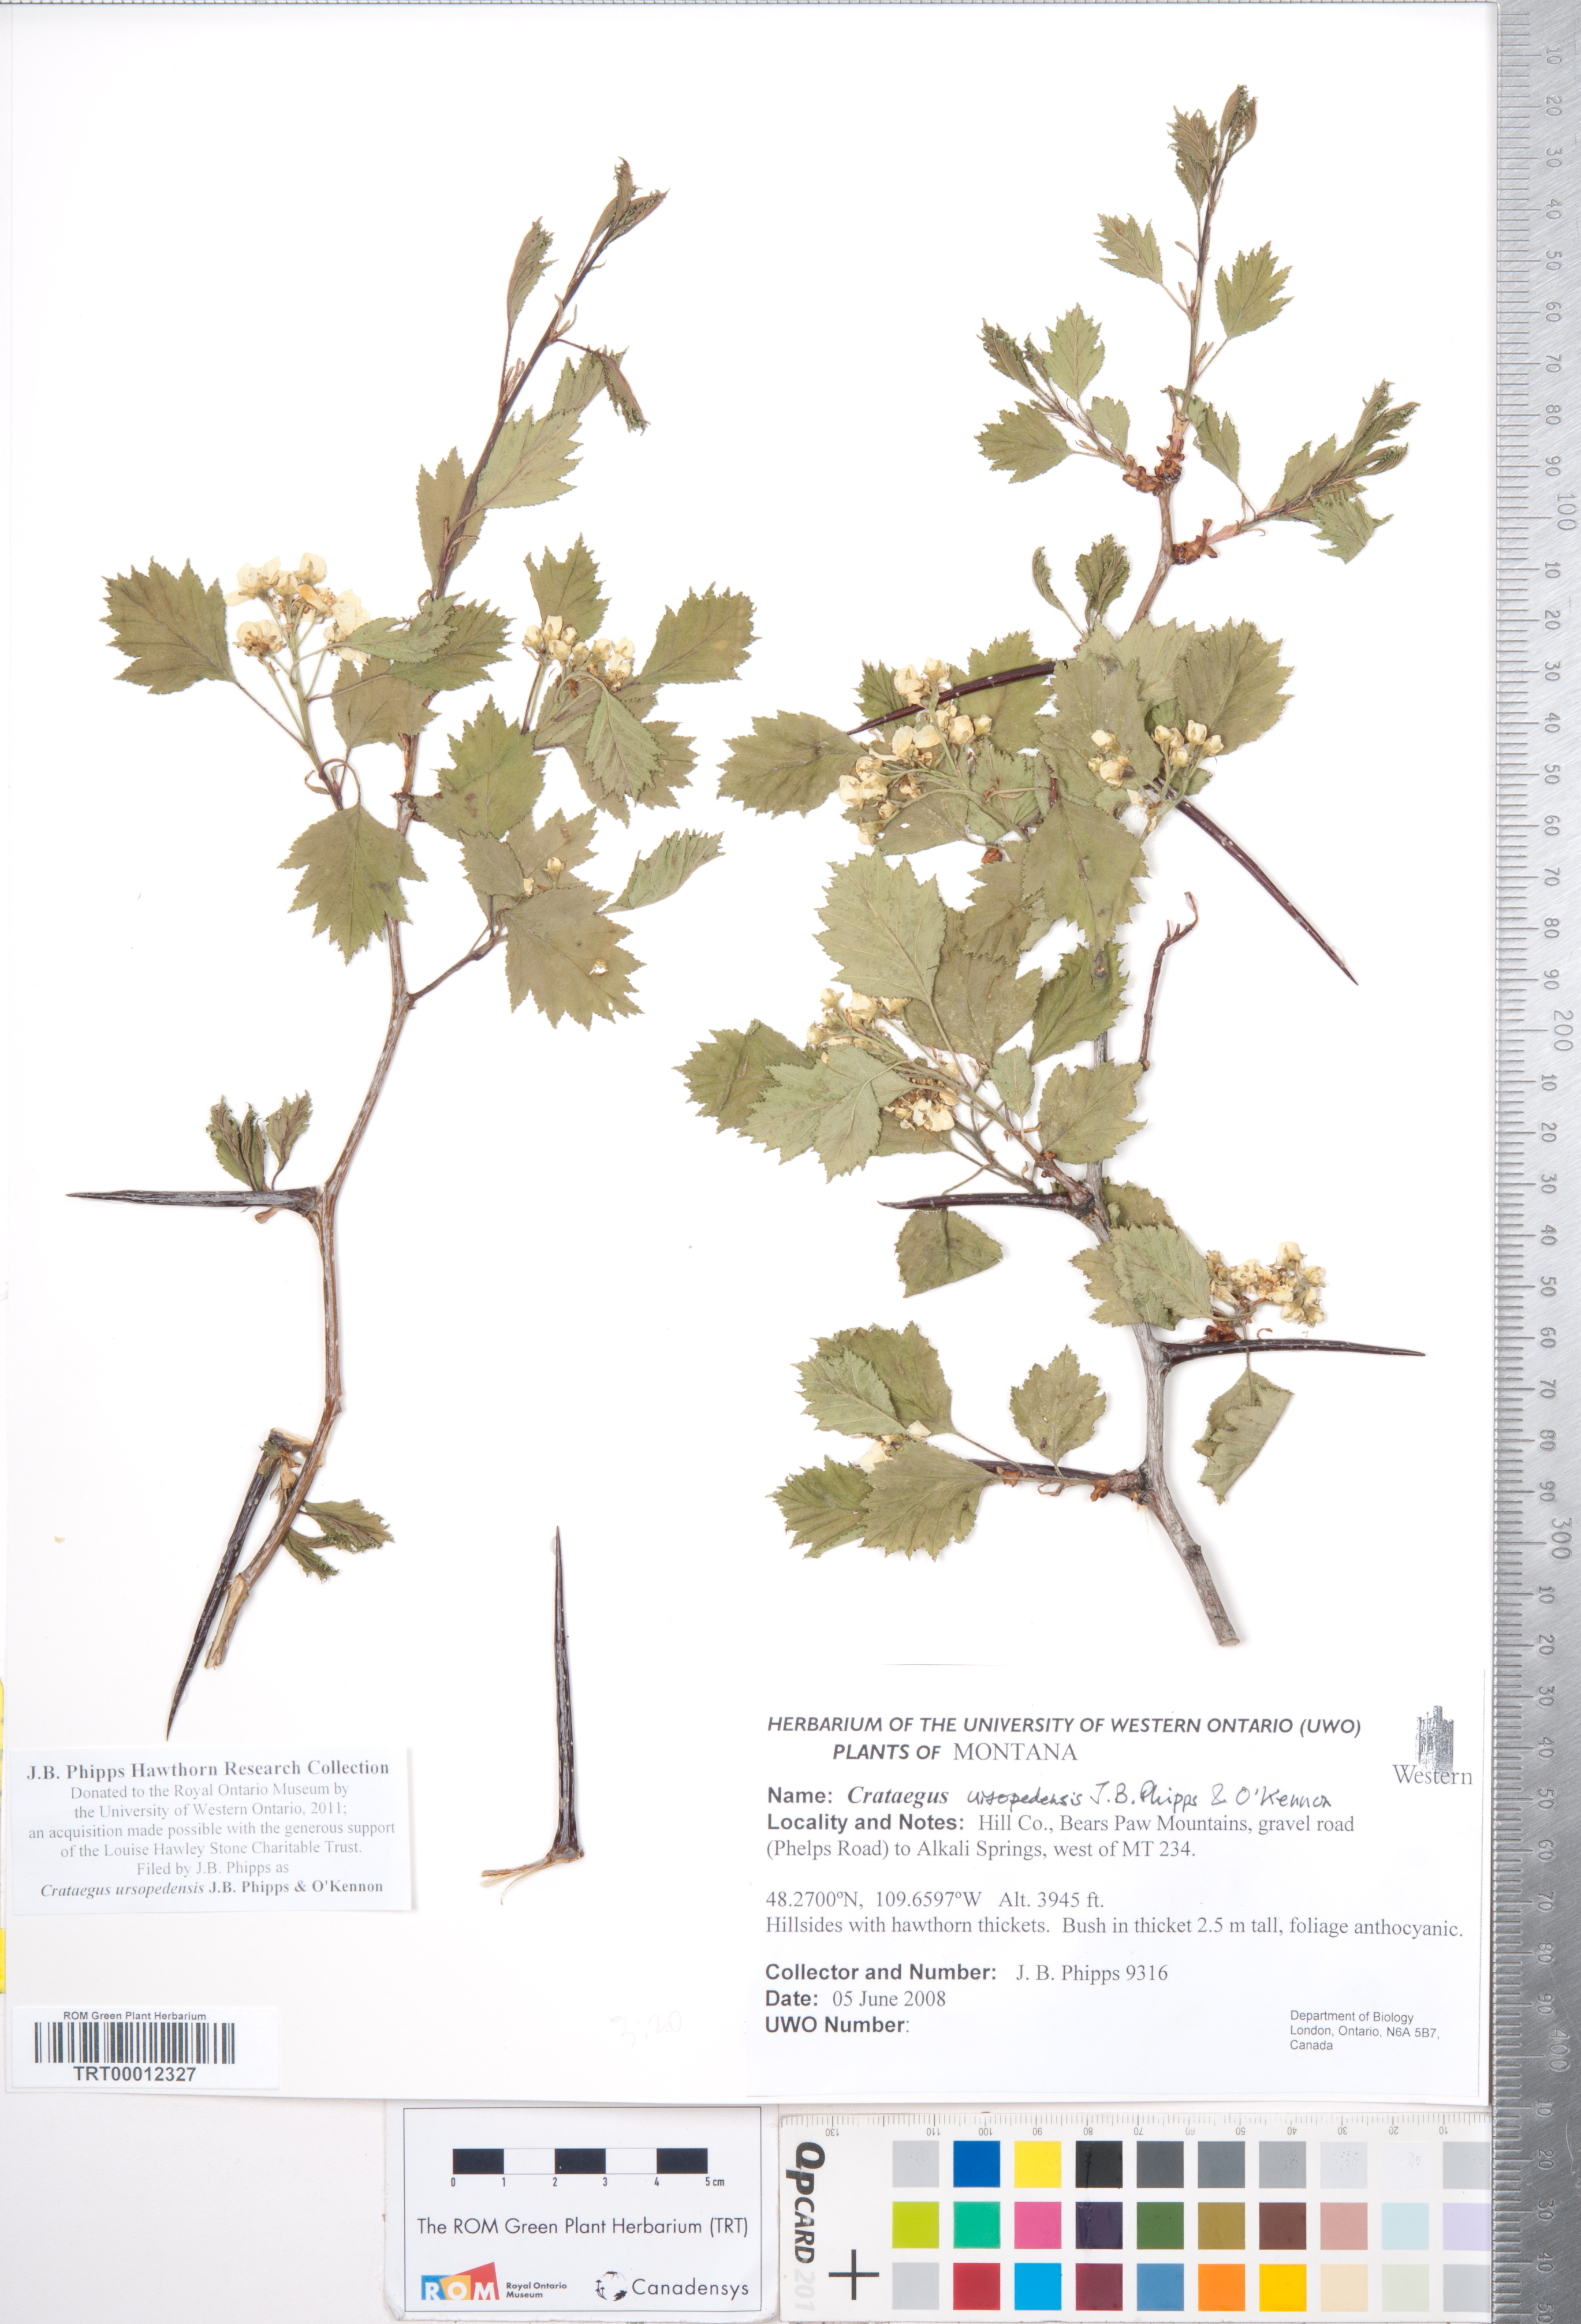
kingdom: Plantae
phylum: Tracheophyta
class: Magnoliopsida
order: Rosales
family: Rosaceae
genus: Crataegus
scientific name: Crataegus ursopedensis
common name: Bears paw hawthorn
